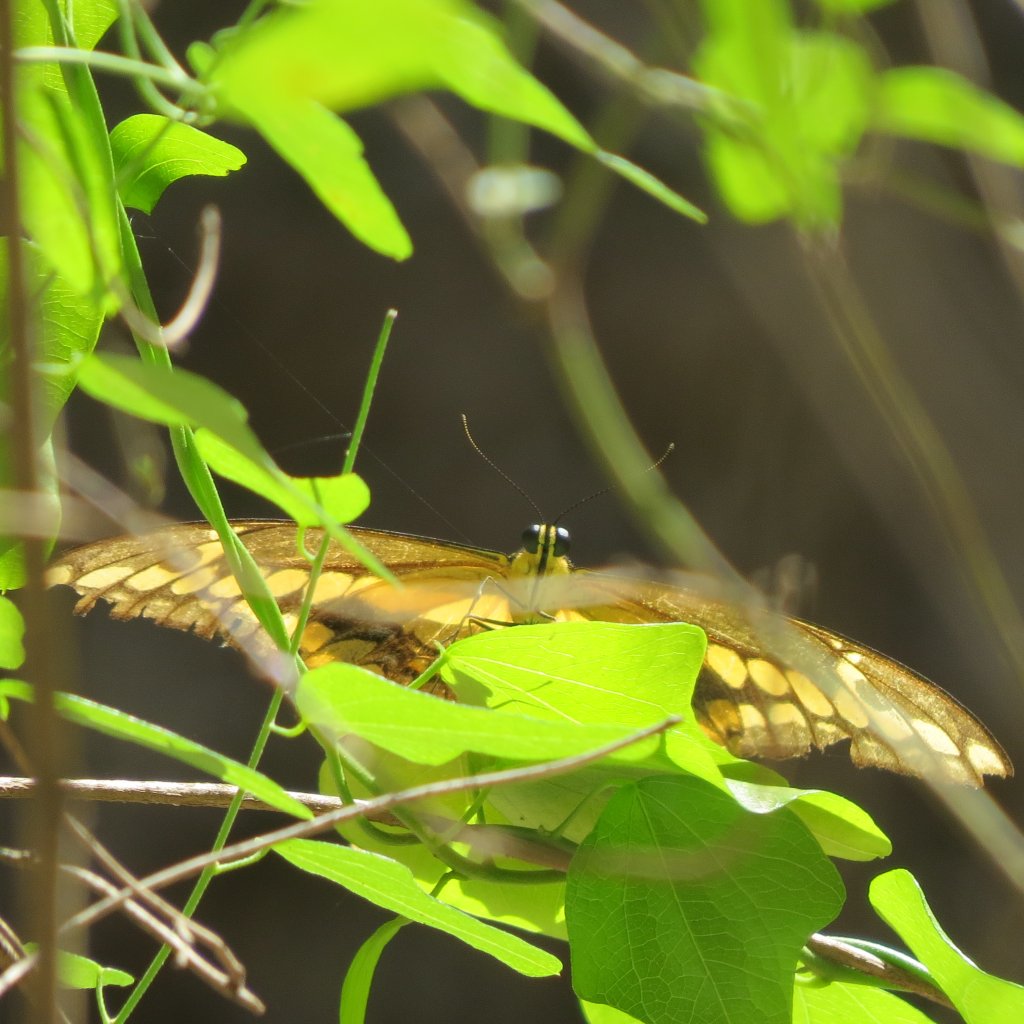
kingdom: Animalia
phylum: Arthropoda
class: Insecta
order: Lepidoptera
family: Papilionidae
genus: Papilio
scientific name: Papilio rumiko
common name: Western Giant Swallowtail
